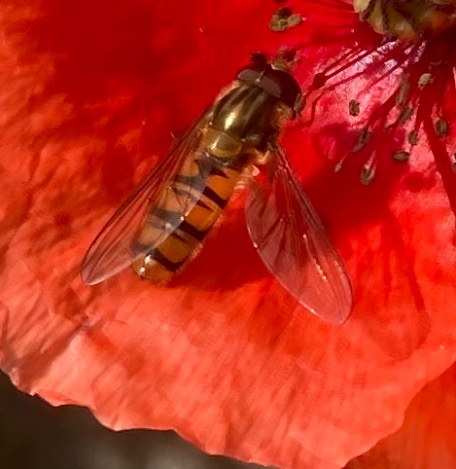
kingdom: Animalia
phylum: Arthropoda
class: Insecta
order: Diptera
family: Syrphidae
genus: Episyrphus
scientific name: Episyrphus balteatus
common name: Dobbeltbåndet svirreflue
